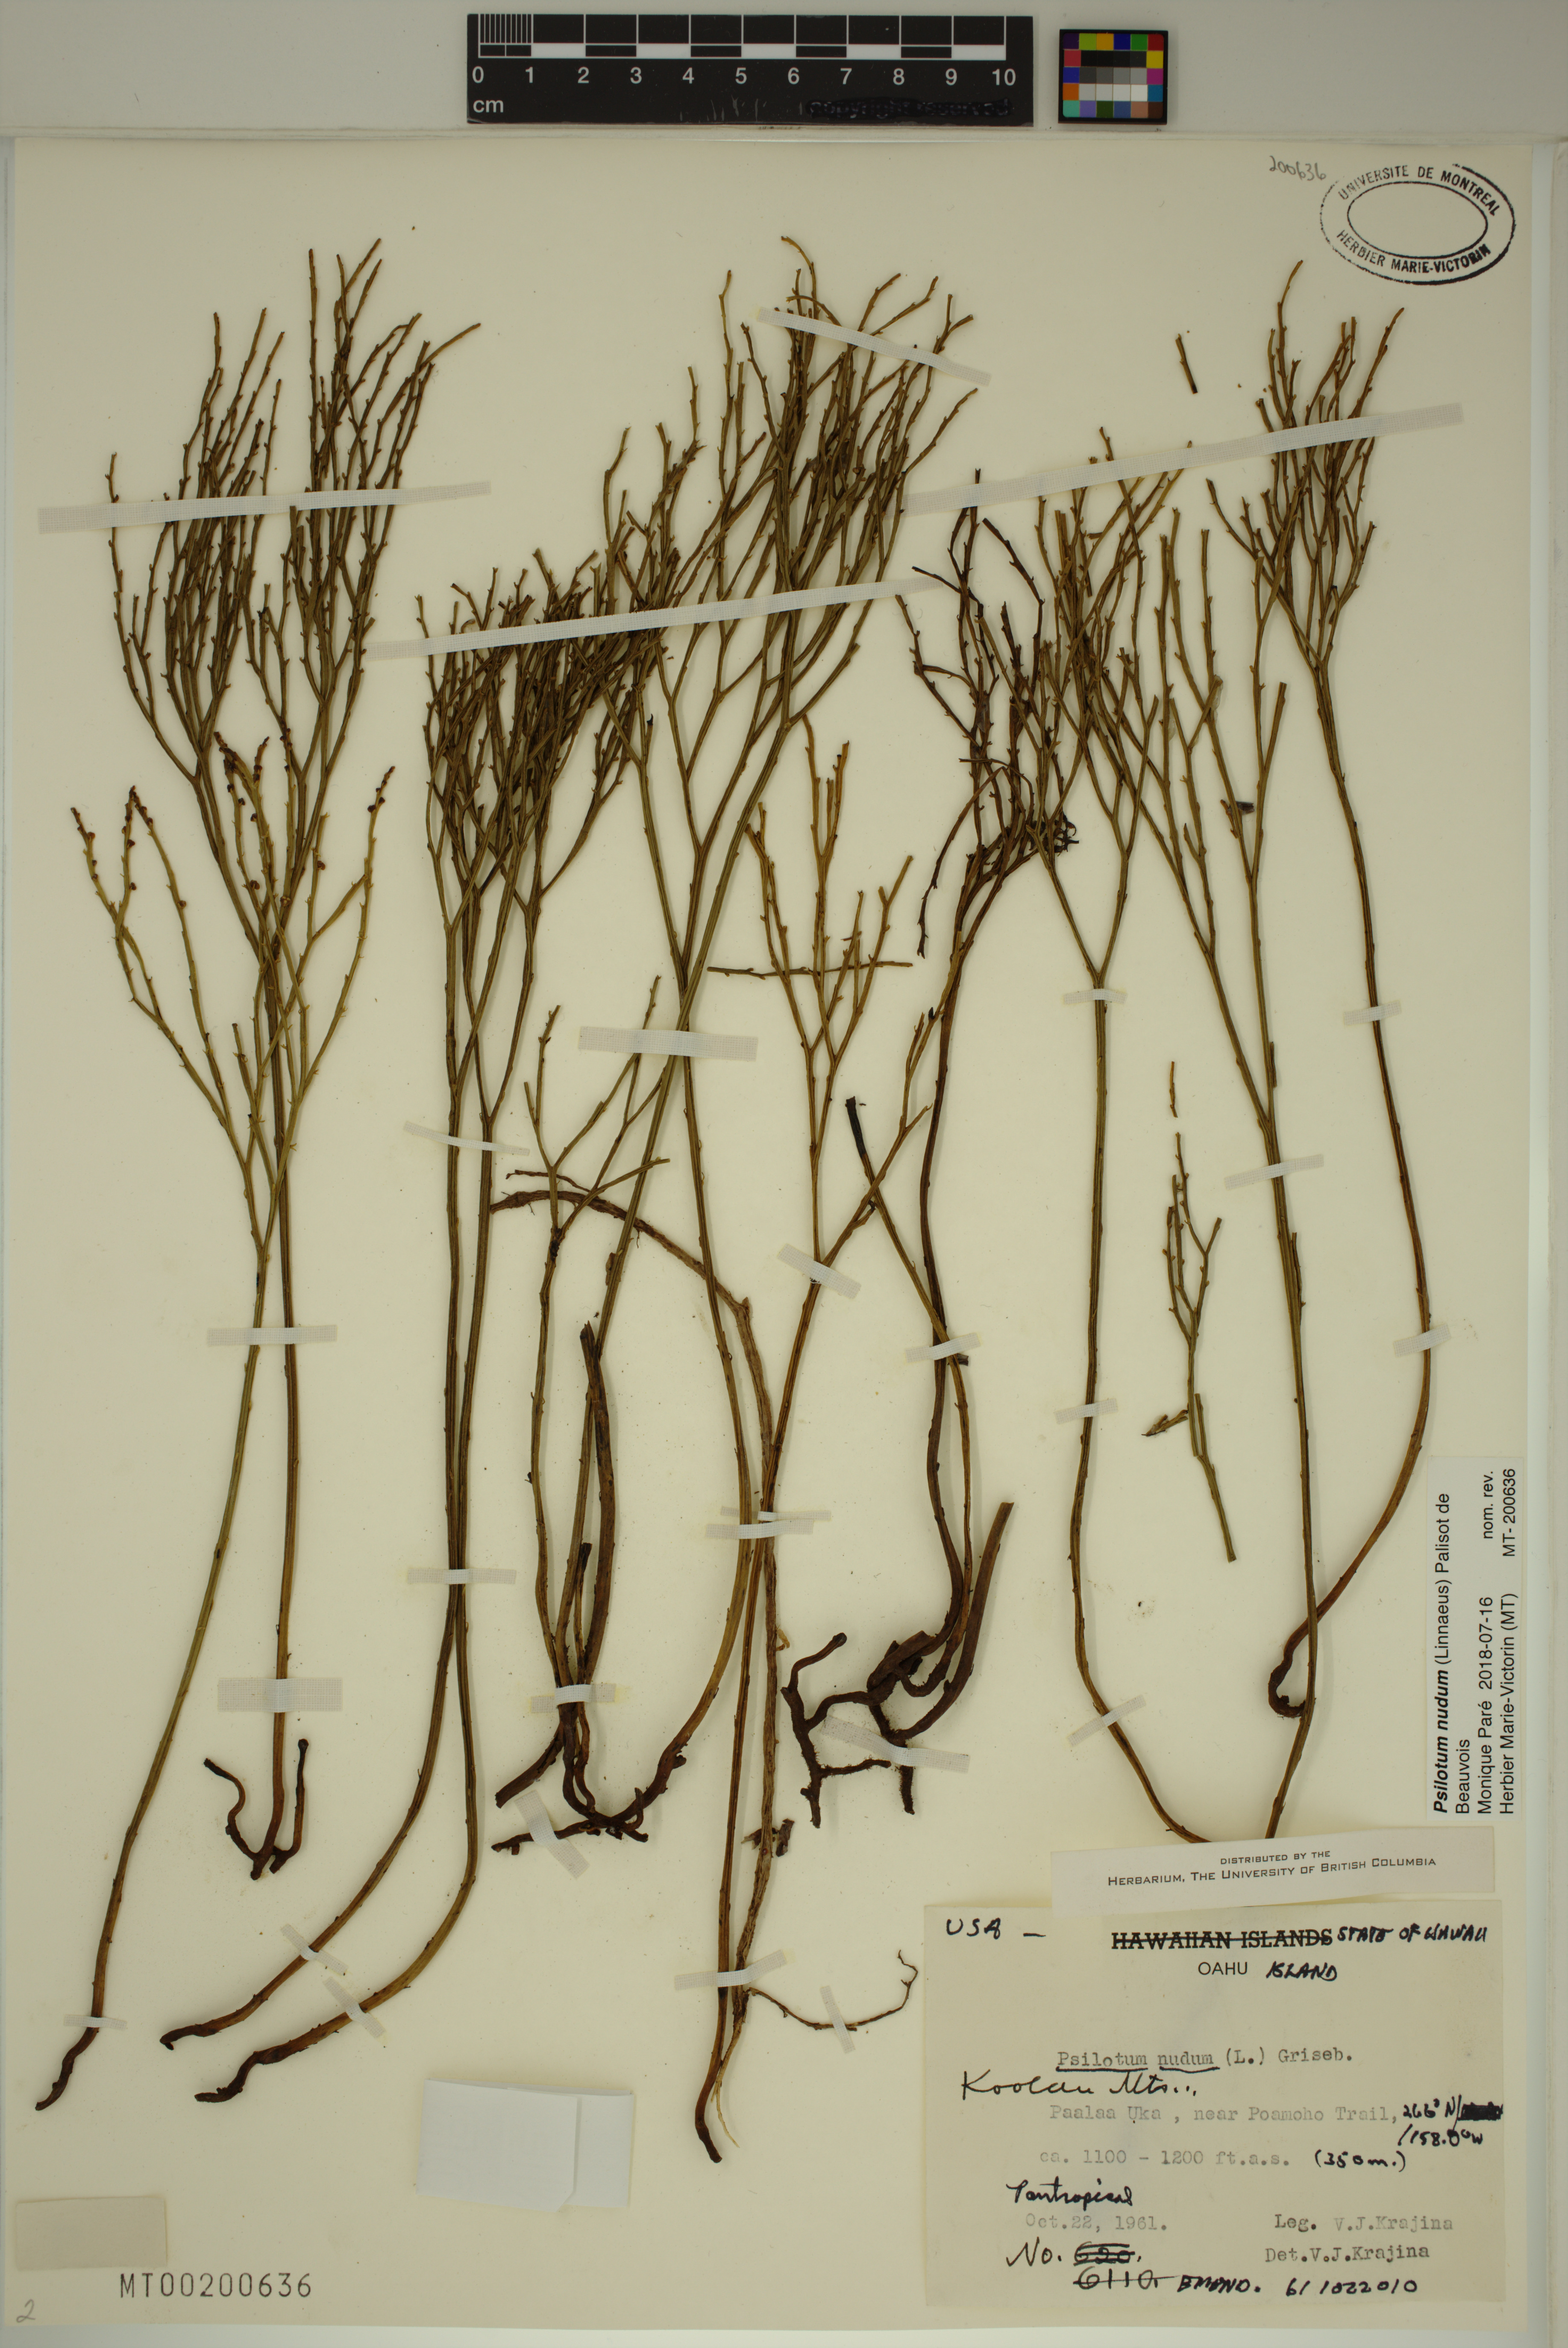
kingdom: Plantae
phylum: Tracheophyta
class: Polypodiopsida
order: Psilotales
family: Psilotaceae
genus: Psilotum
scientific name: Psilotum nudum
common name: Skeleton fork fern
